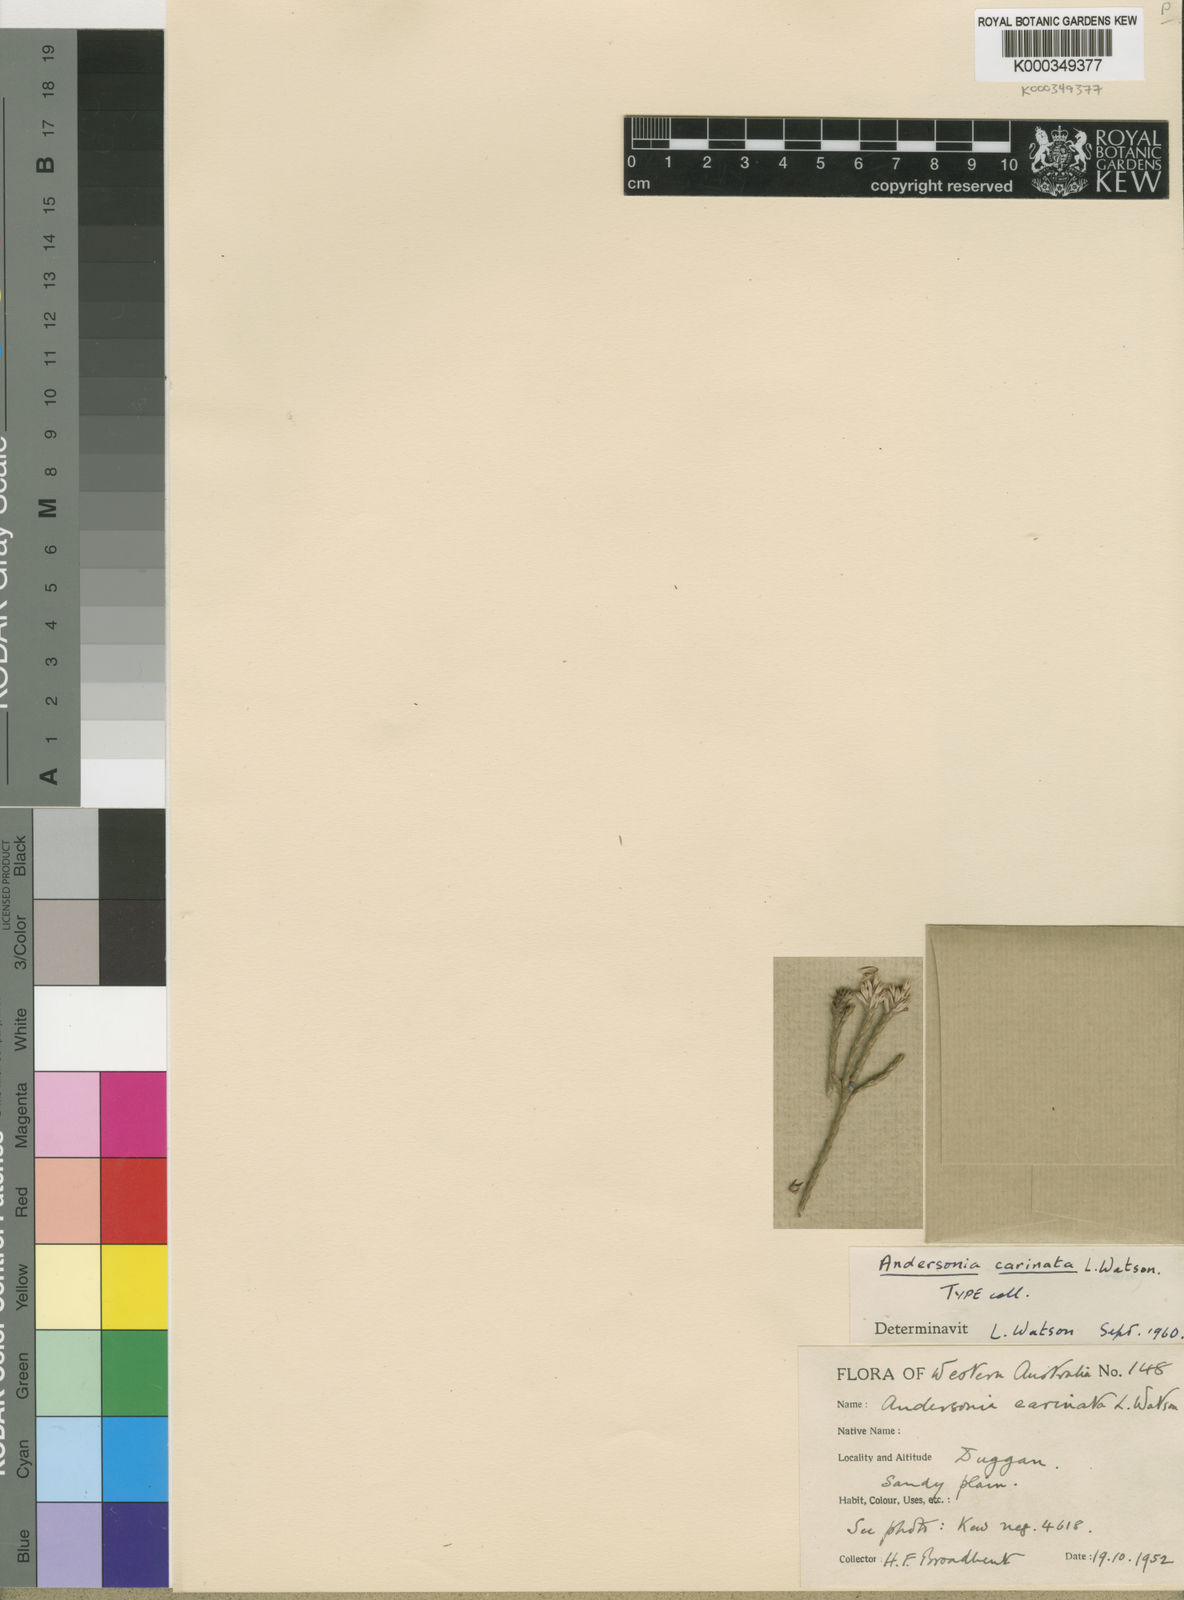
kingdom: Plantae
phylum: Tracheophyta
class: Magnoliopsida
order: Ericales
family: Ericaceae
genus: Andersonia
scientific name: Andersonia carinata
